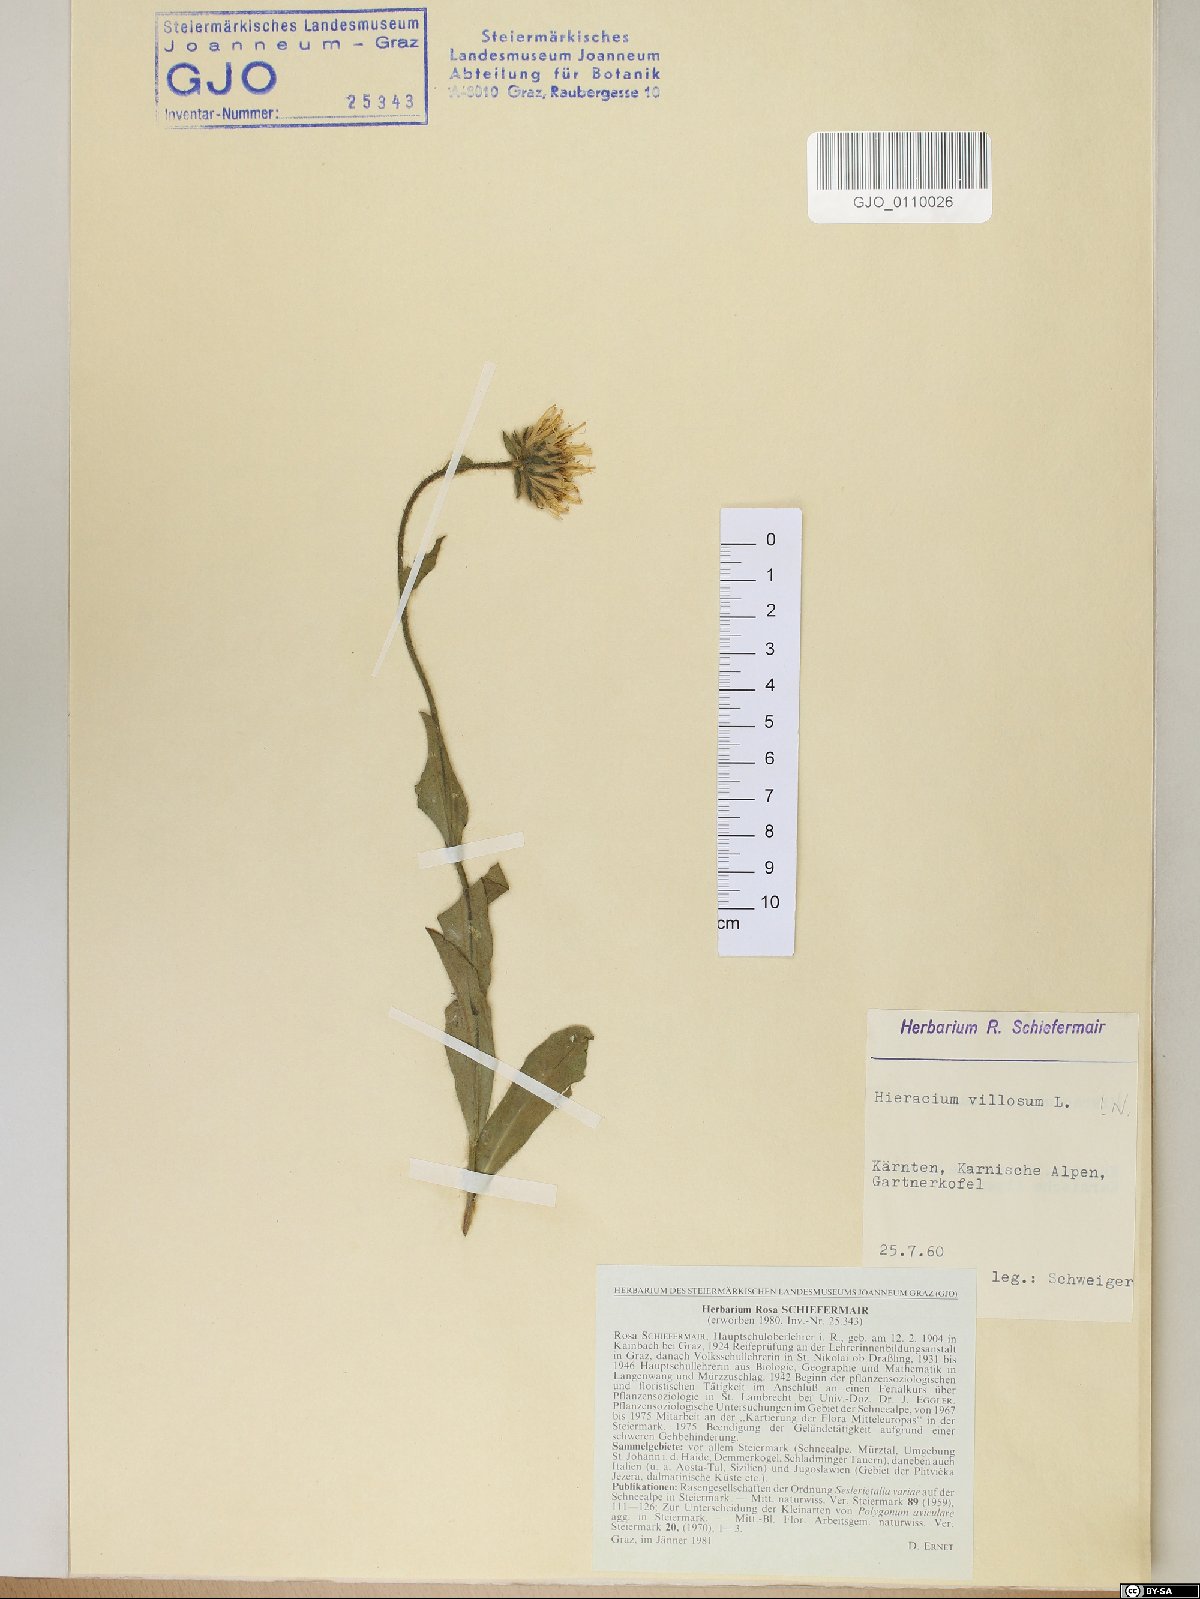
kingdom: Plantae
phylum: Tracheophyta
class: Magnoliopsida
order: Asterales
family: Asteraceae
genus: Hieracium
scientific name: Hieracium villosum
